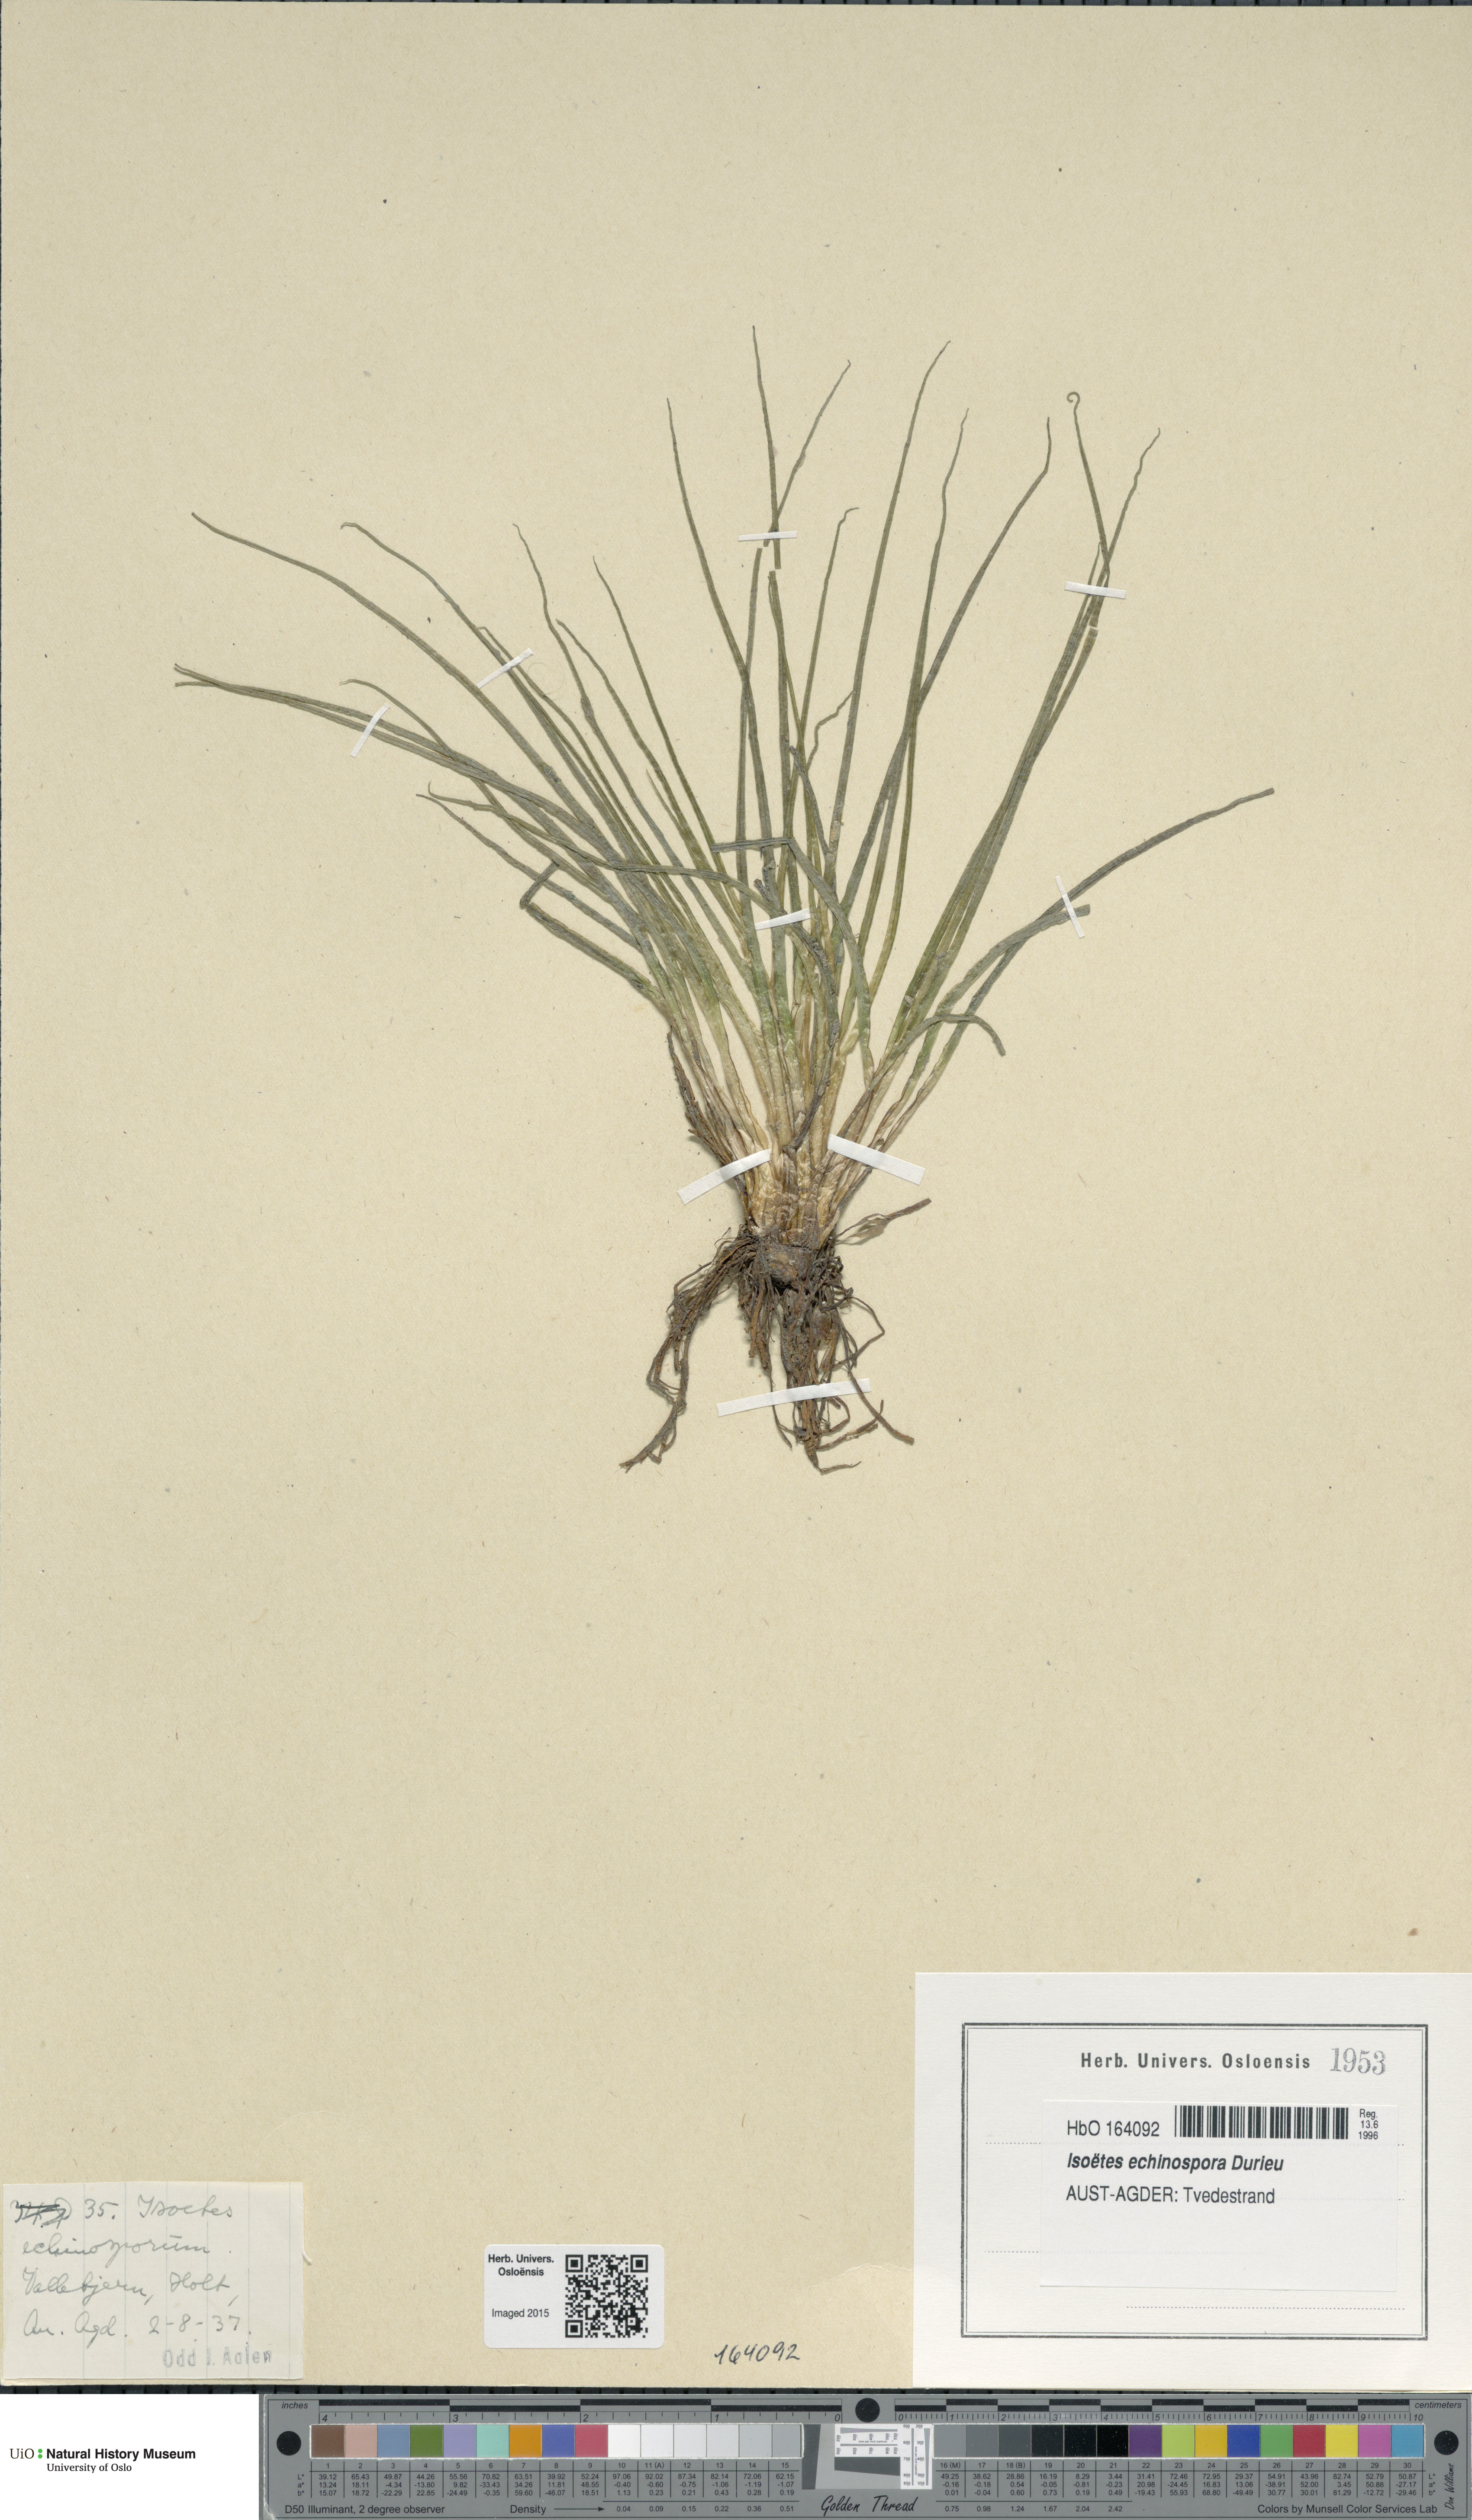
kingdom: Plantae
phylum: Tracheophyta
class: Lycopodiopsida
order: Isoetales
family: Isoetaceae
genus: Isoetes
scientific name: Isoetes echinospora
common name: Spring quillwort
